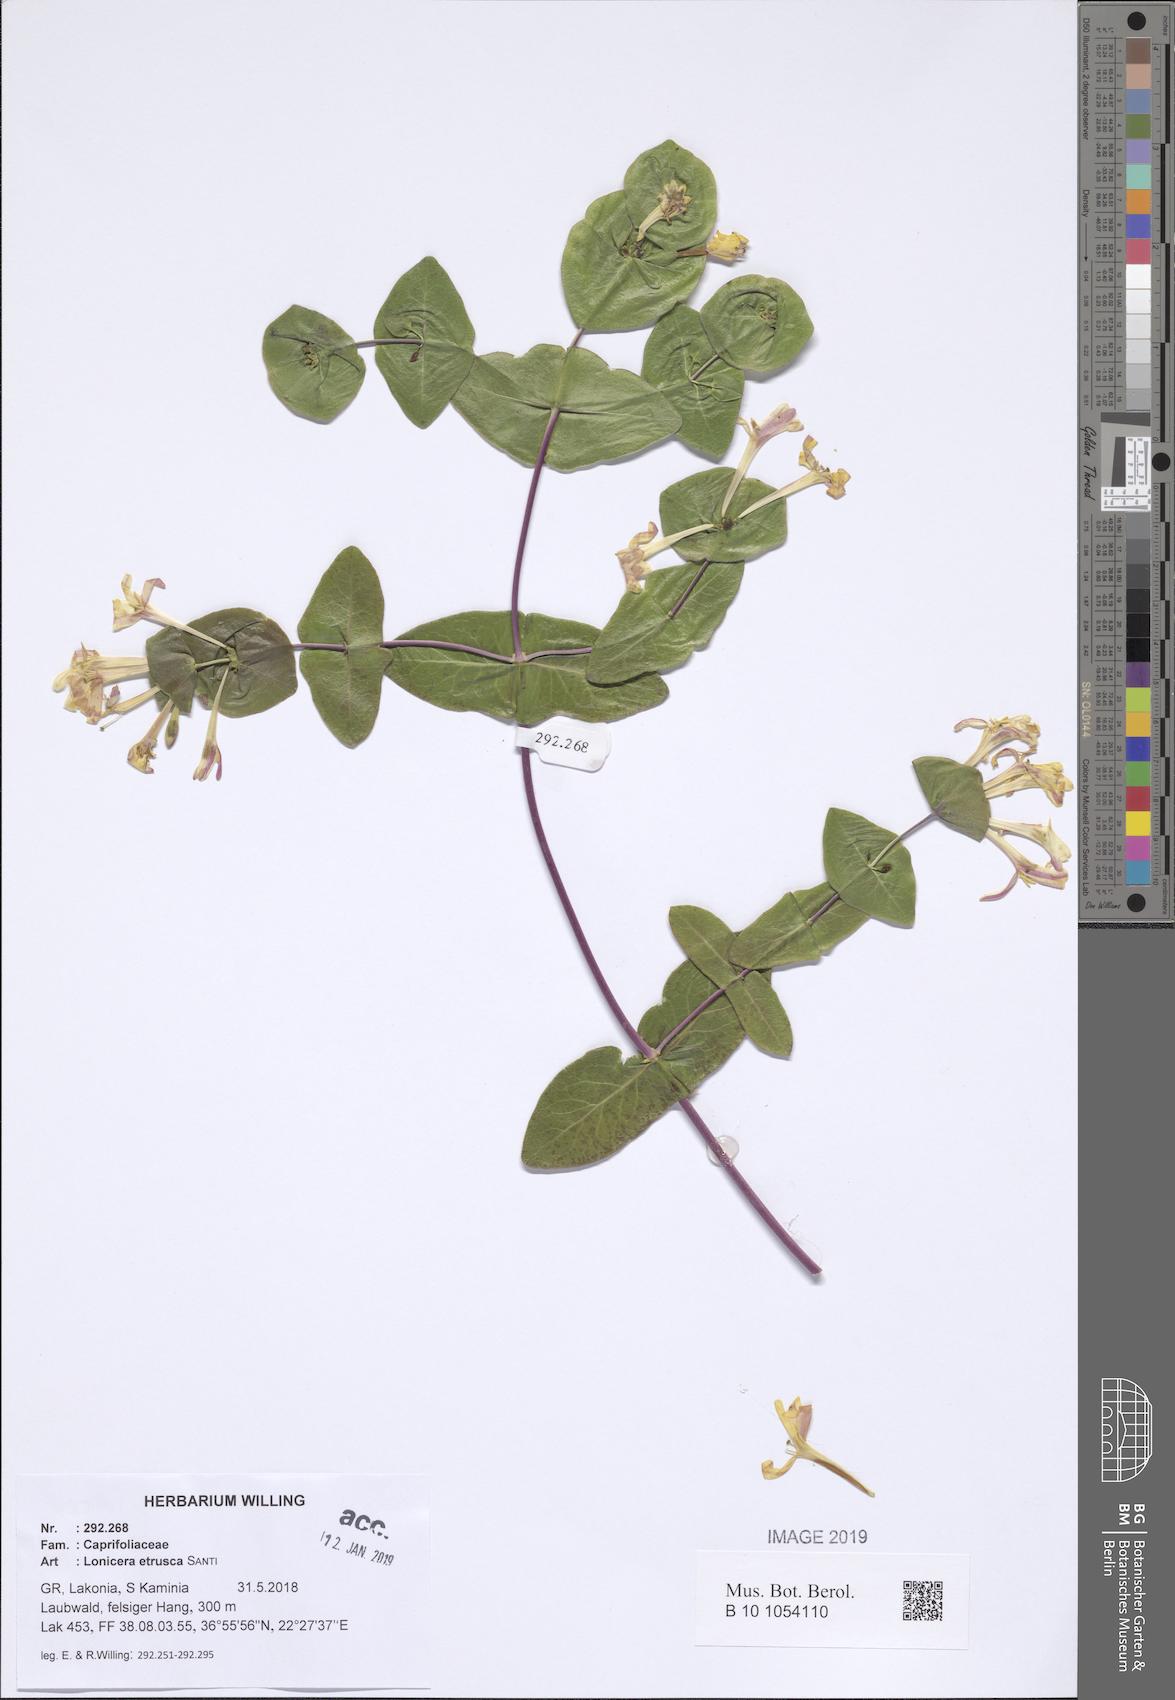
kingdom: Plantae
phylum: Tracheophyta
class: Magnoliopsida
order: Dipsacales
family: Caprifoliaceae
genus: Lonicera
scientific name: Lonicera implexa
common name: Minorca honeysuckle
